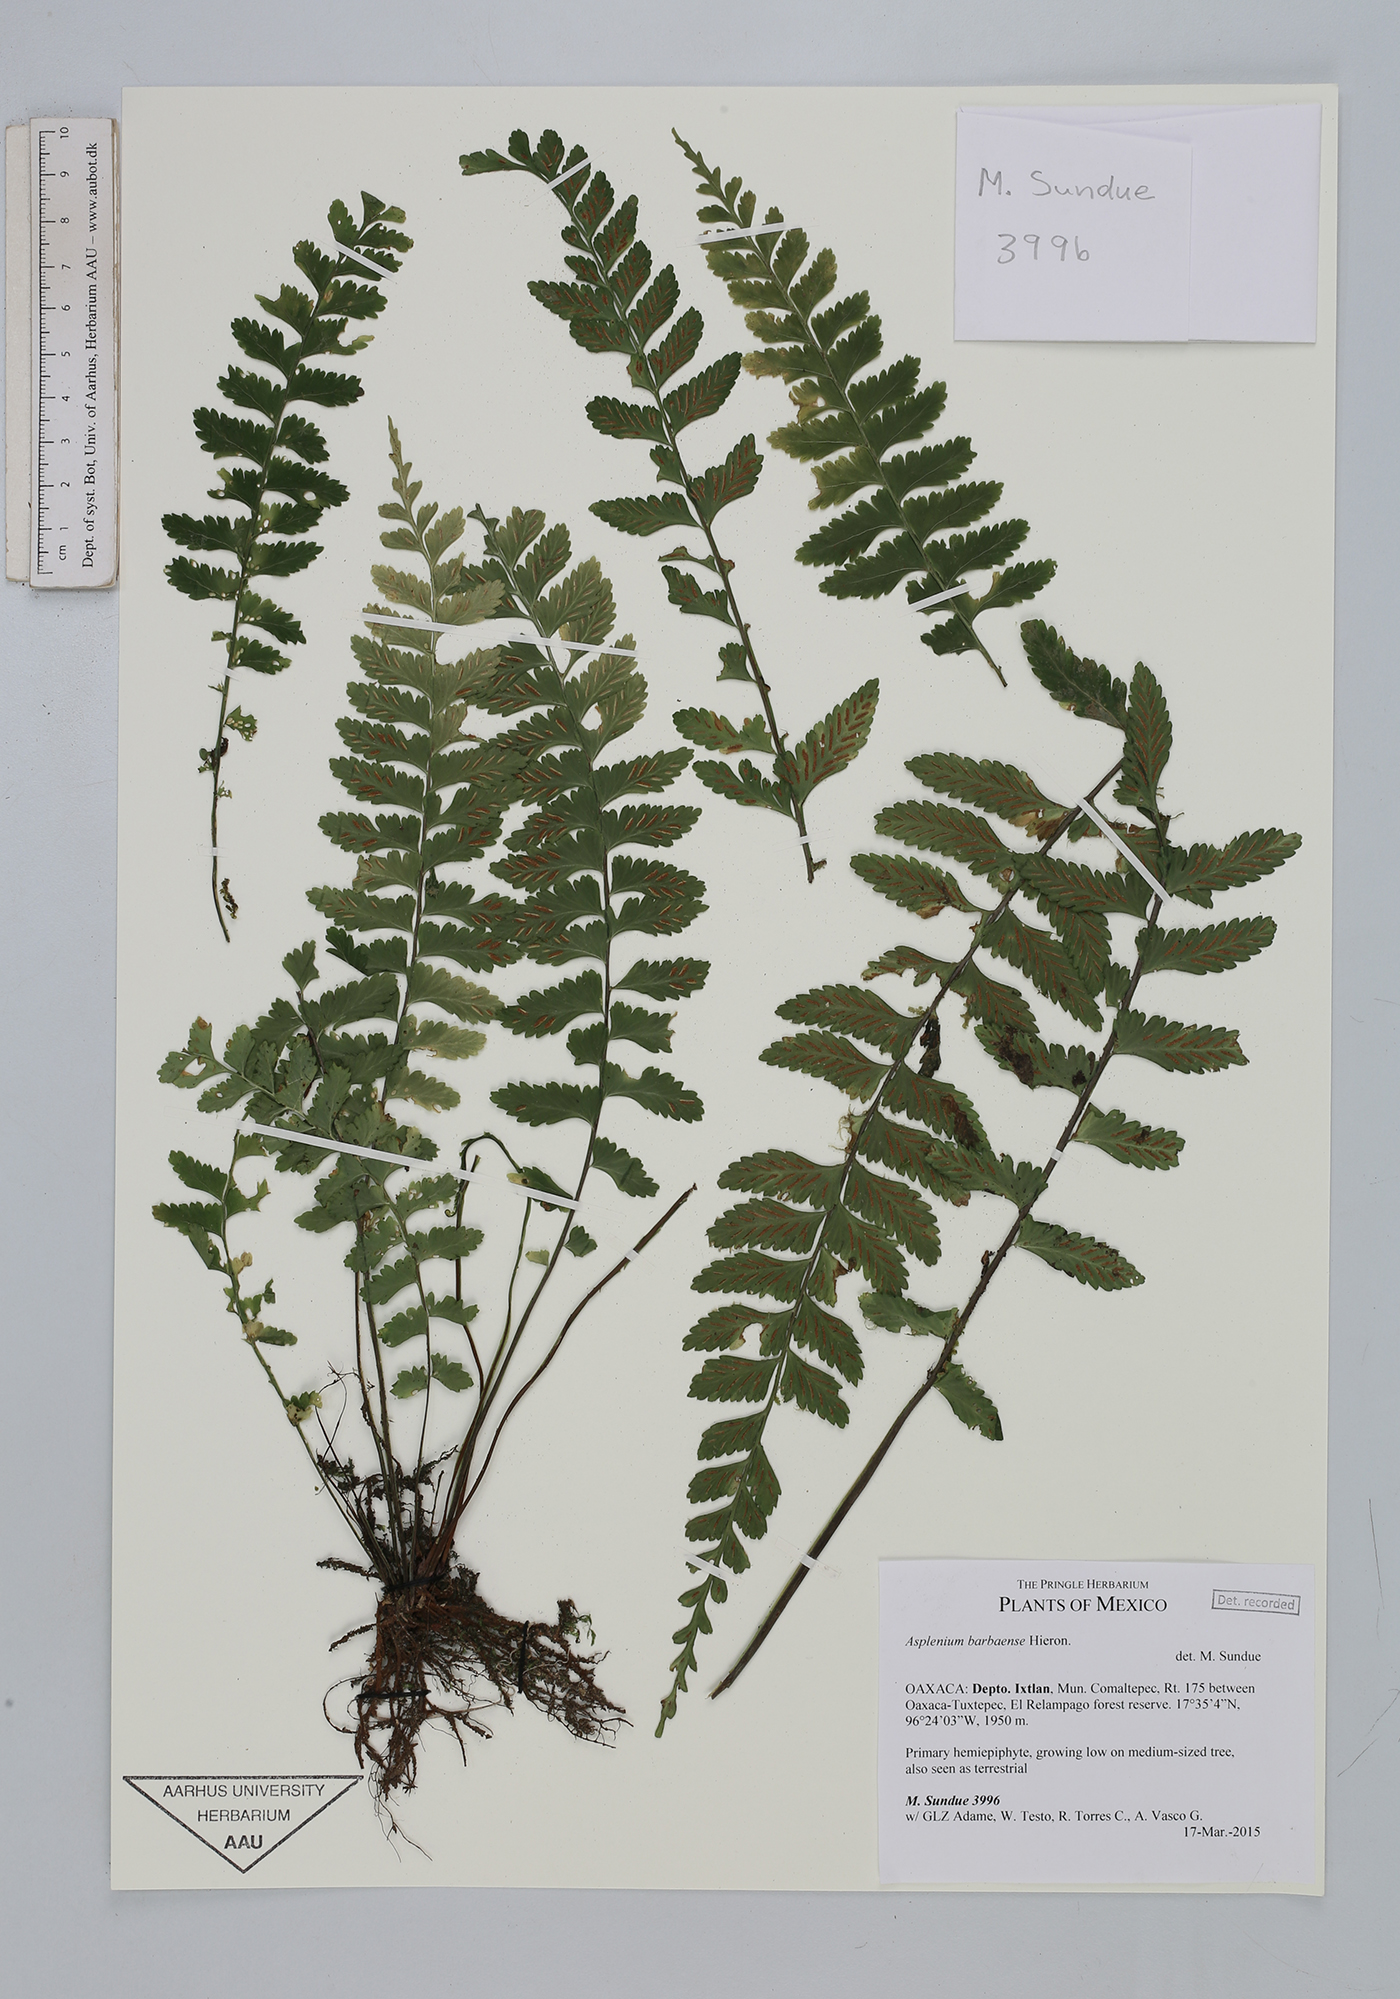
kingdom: Plantae
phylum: Tracheophyta
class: Polypodiopsida
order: Polypodiales
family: Aspleniaceae
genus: Asplenium
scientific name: Asplenium barbaense
